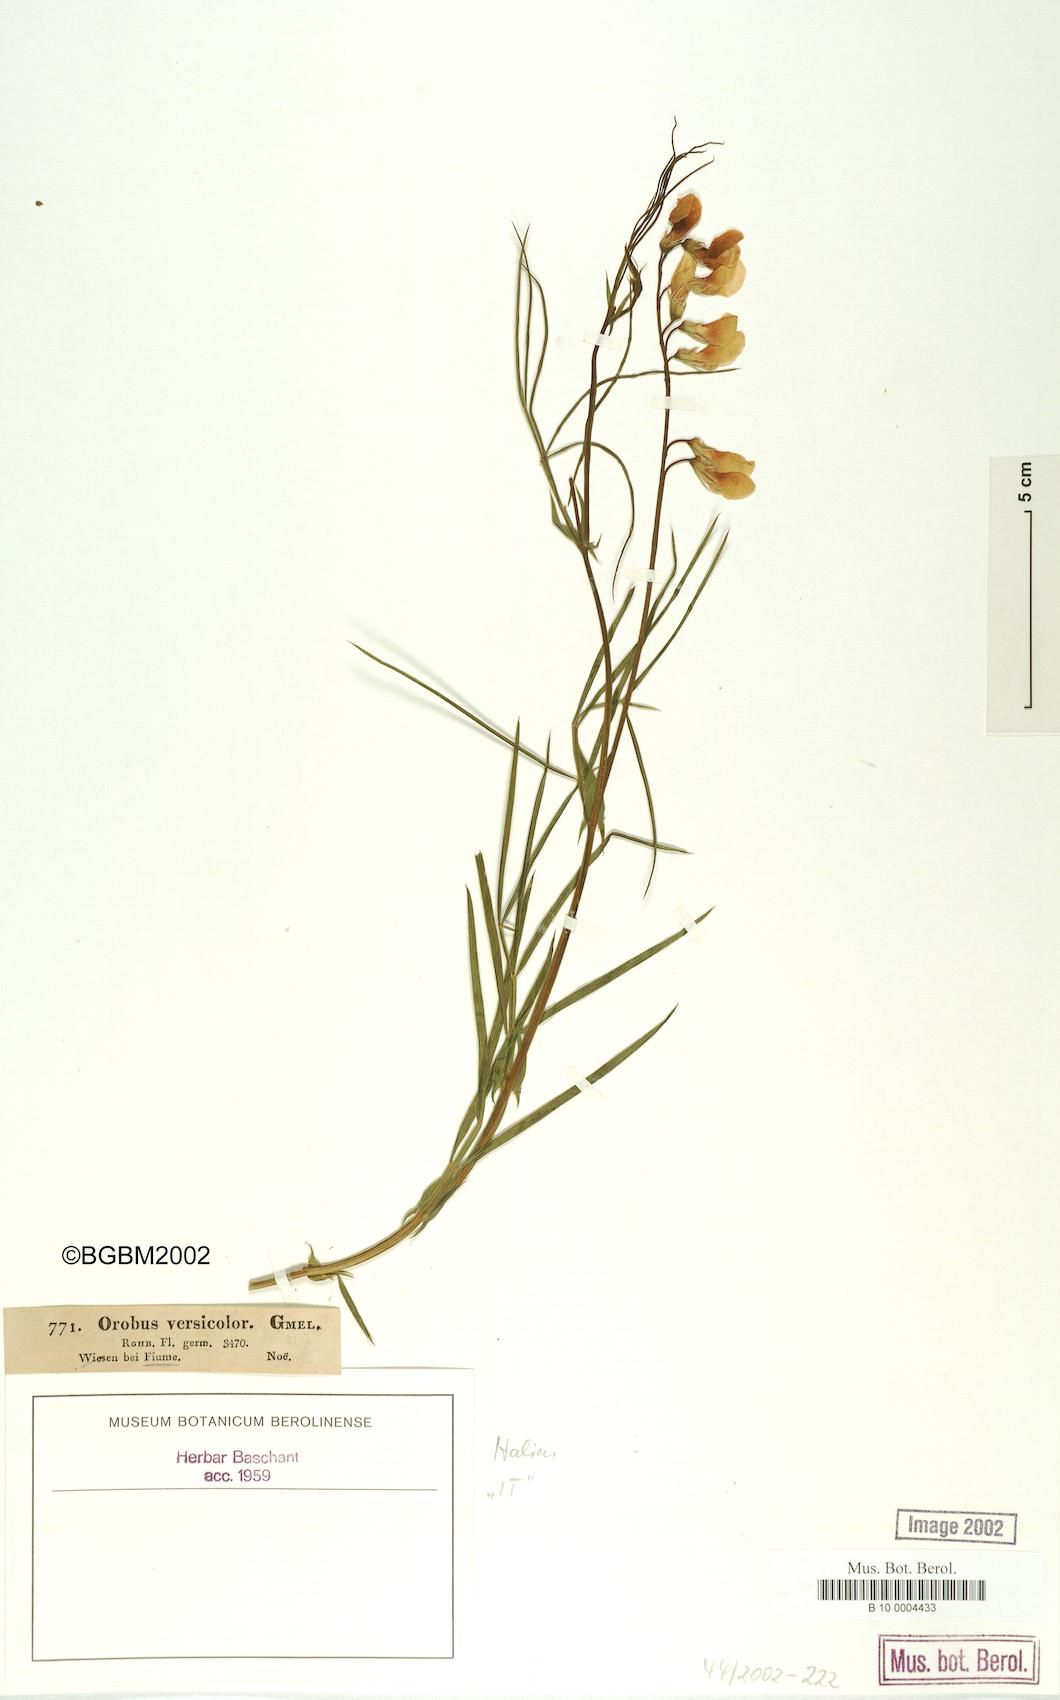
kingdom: Plantae
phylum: Tracheophyta
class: Magnoliopsida
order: Fabales
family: Fabaceae
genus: Lathyrus
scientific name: Lathyrus pannonicus
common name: Pea
